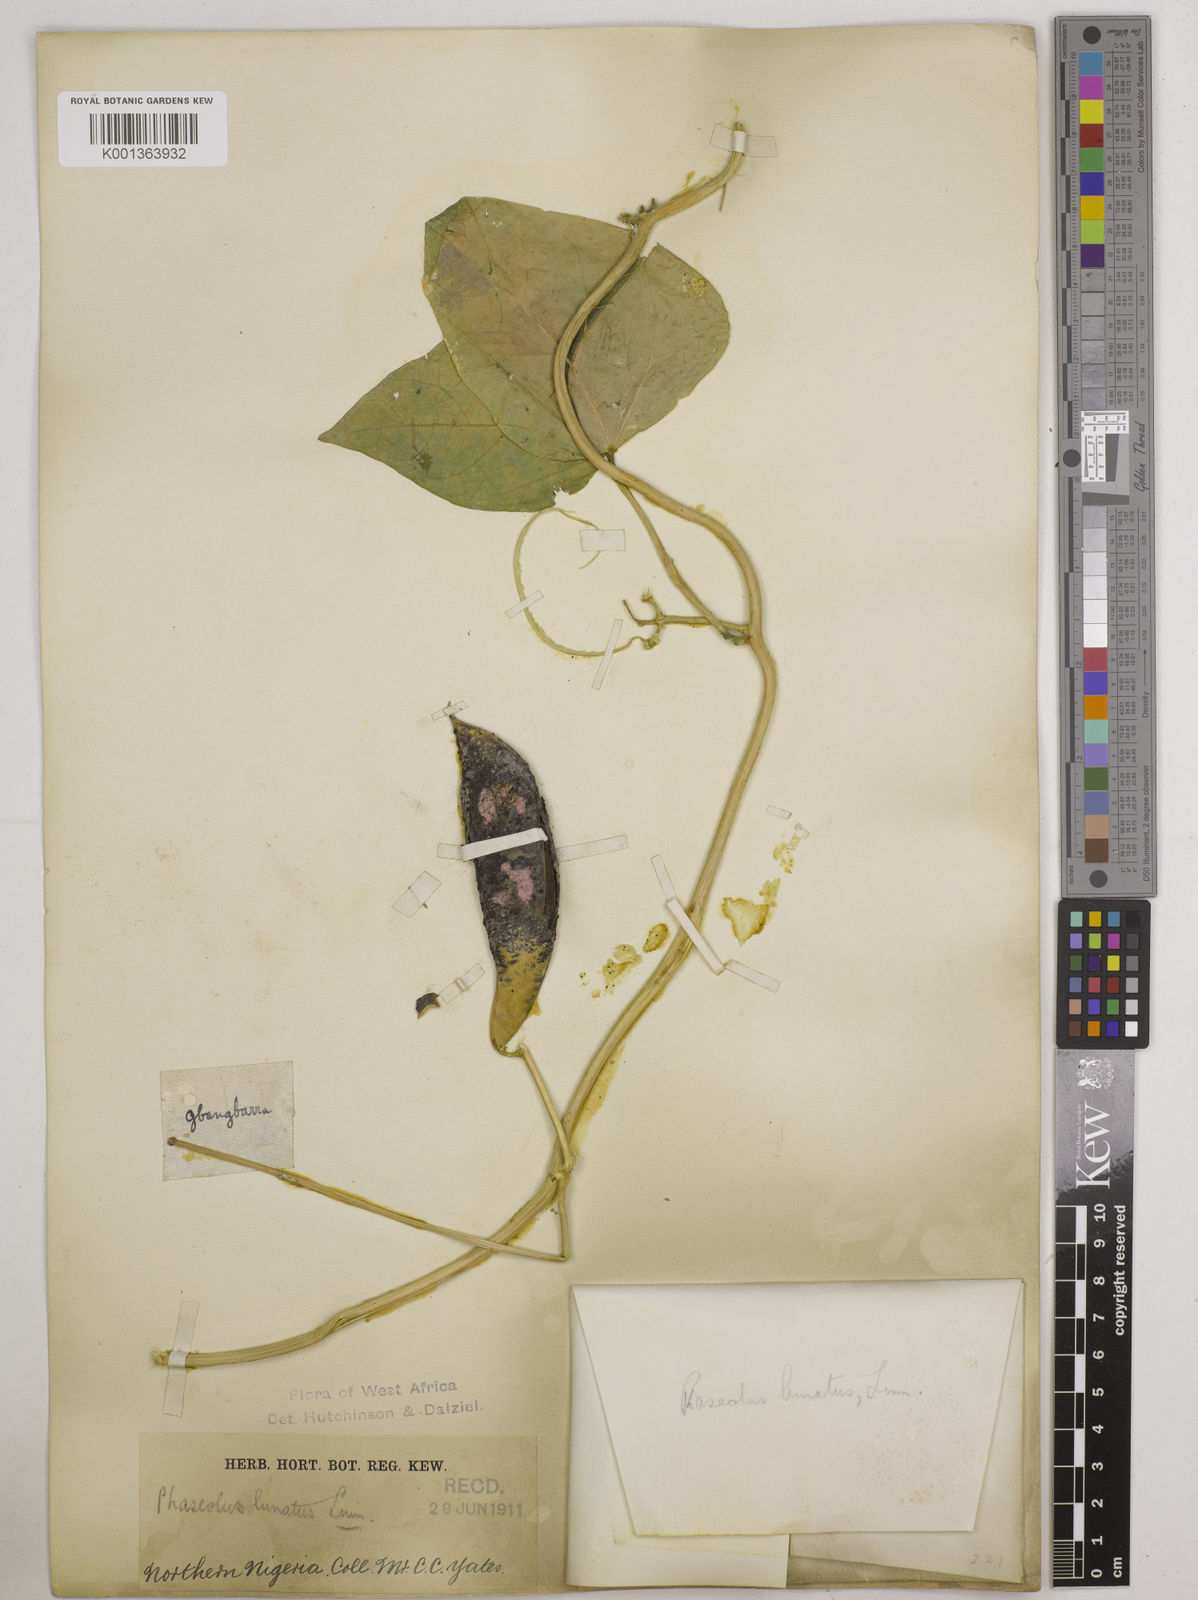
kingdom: Plantae
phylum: Tracheophyta
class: Magnoliopsida
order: Fabales
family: Fabaceae
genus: Phaseolus
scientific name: Phaseolus lunatus
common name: Sieva bean
